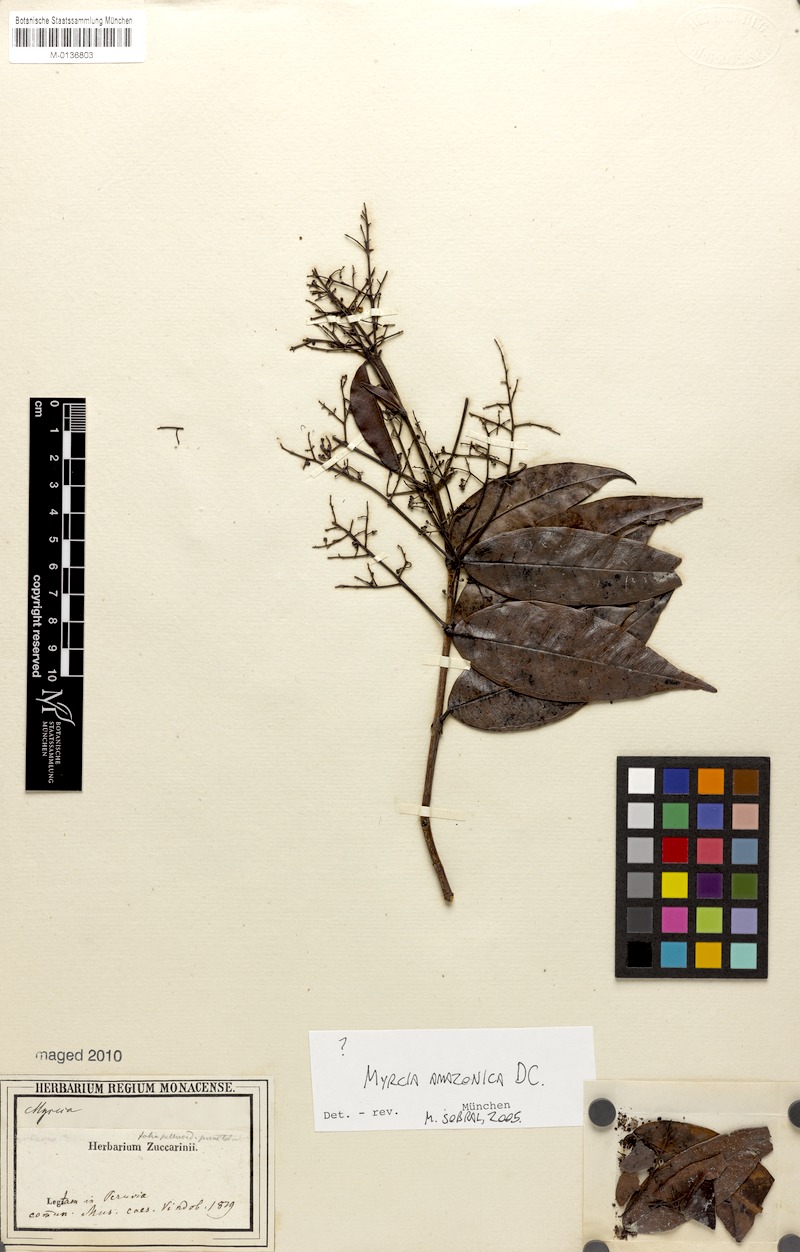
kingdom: Plantae
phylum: Tracheophyta
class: Magnoliopsida
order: Myrtales
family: Myrtaceae
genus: Myrcia
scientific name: Myrcia amazonica
